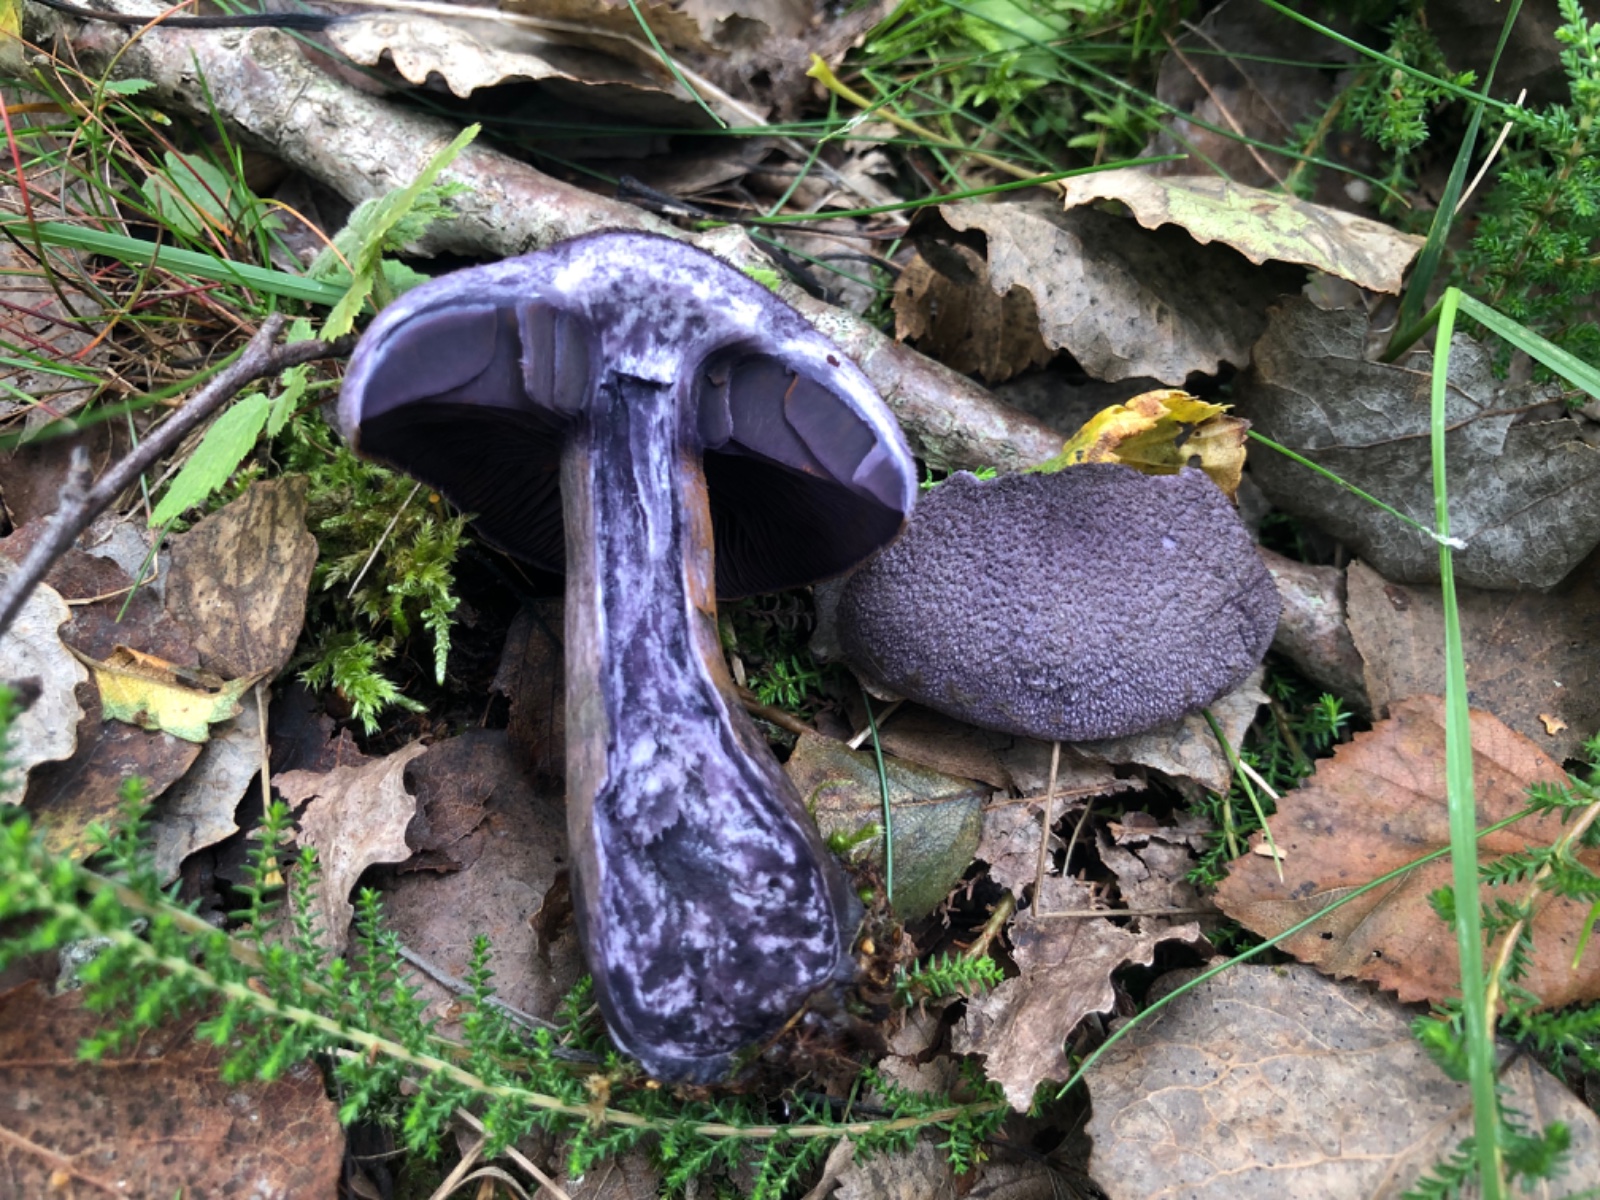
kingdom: Fungi
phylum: Basidiomycota
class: Agaricomycetes
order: Agaricales
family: Cortinariaceae
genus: Cortinarius
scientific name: Cortinarius violaceus
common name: mørkviolet slørhat
